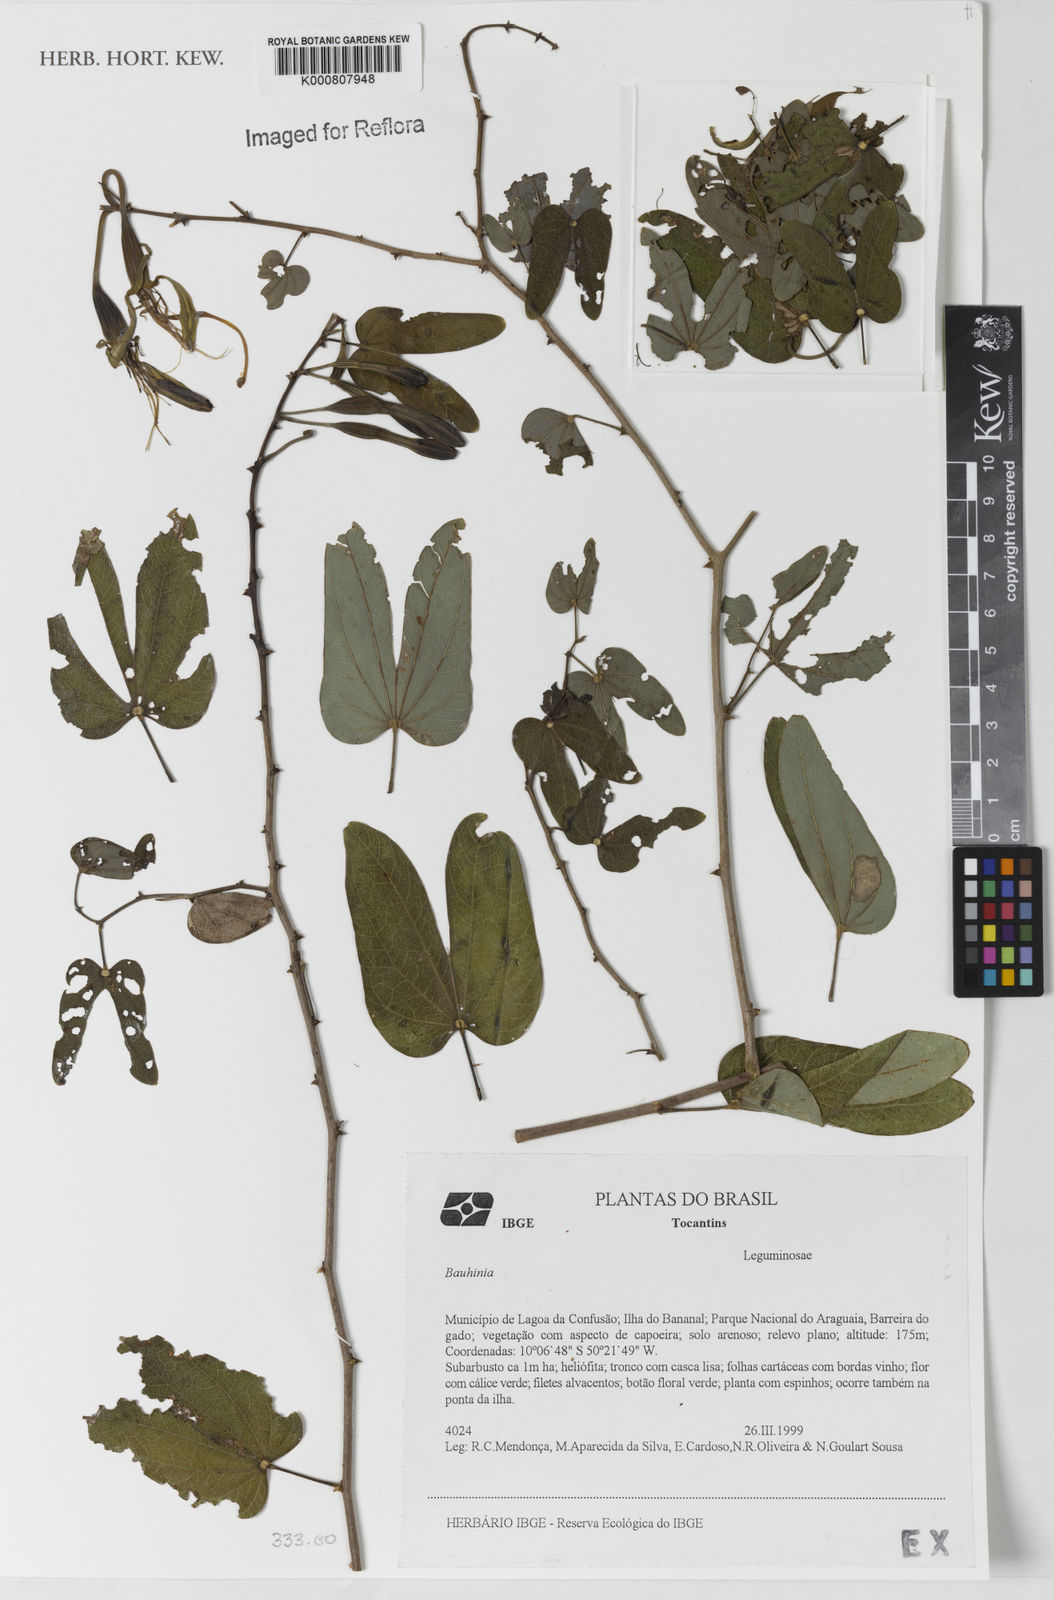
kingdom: Plantae
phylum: Tracheophyta
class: Magnoliopsida
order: Fabales
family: Fabaceae
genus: Bauhinia
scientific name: Bauhinia
